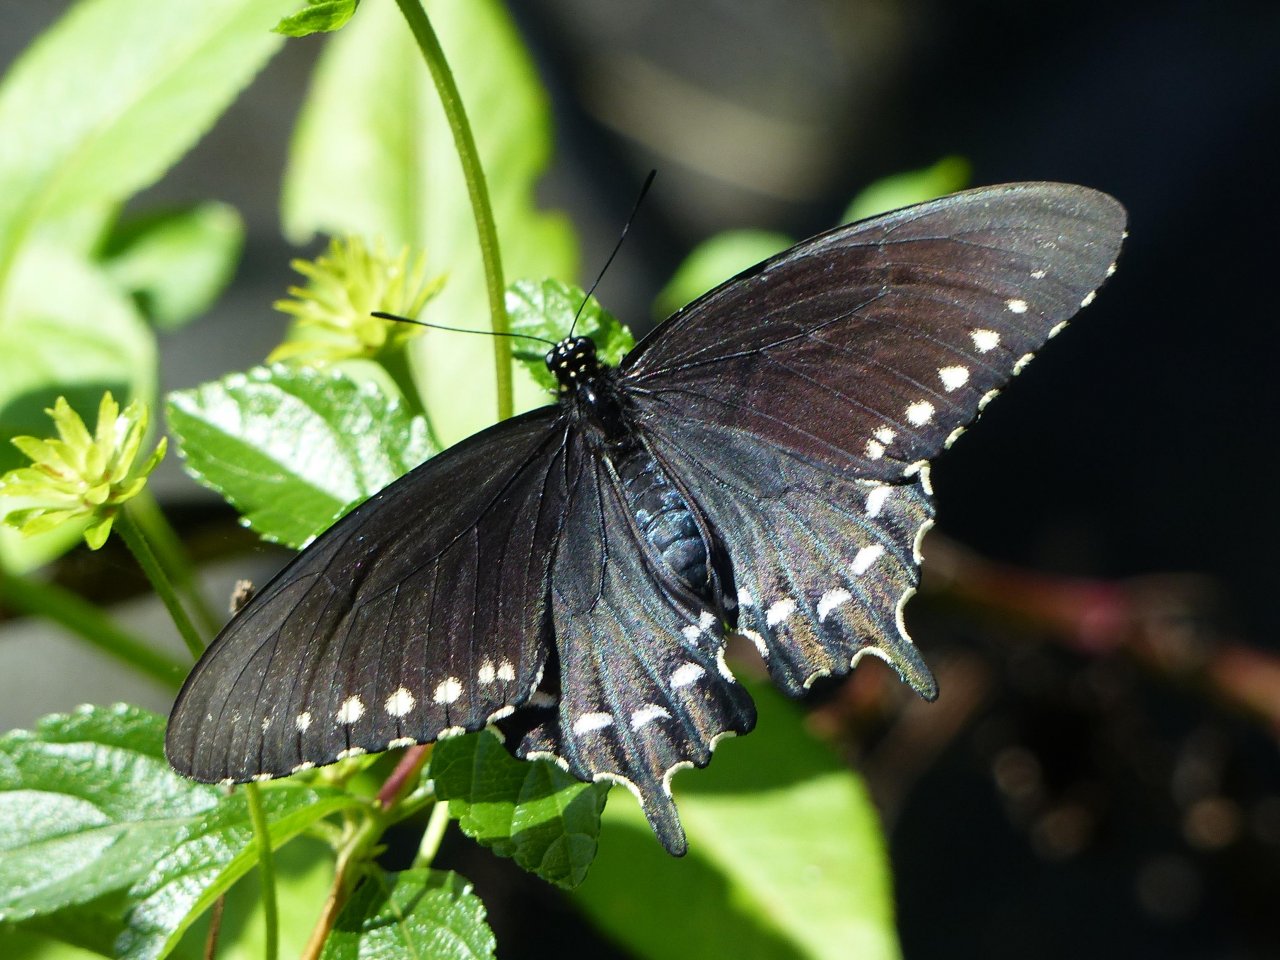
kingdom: Animalia
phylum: Arthropoda
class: Insecta
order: Lepidoptera
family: Papilionidae
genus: Battus
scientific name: Battus philenor
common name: Pipevine Swallowtail
